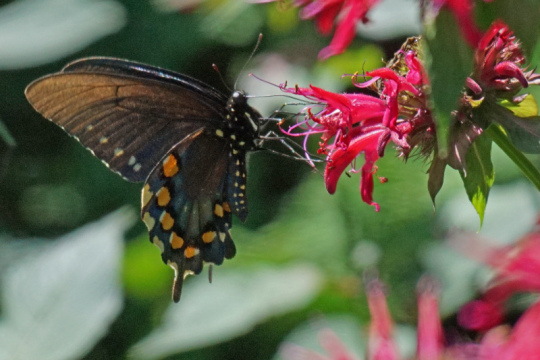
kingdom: Animalia
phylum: Arthropoda
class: Insecta
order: Lepidoptera
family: Papilionidae
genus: Battus
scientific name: Battus philenor
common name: Pipevine Swallowtail
